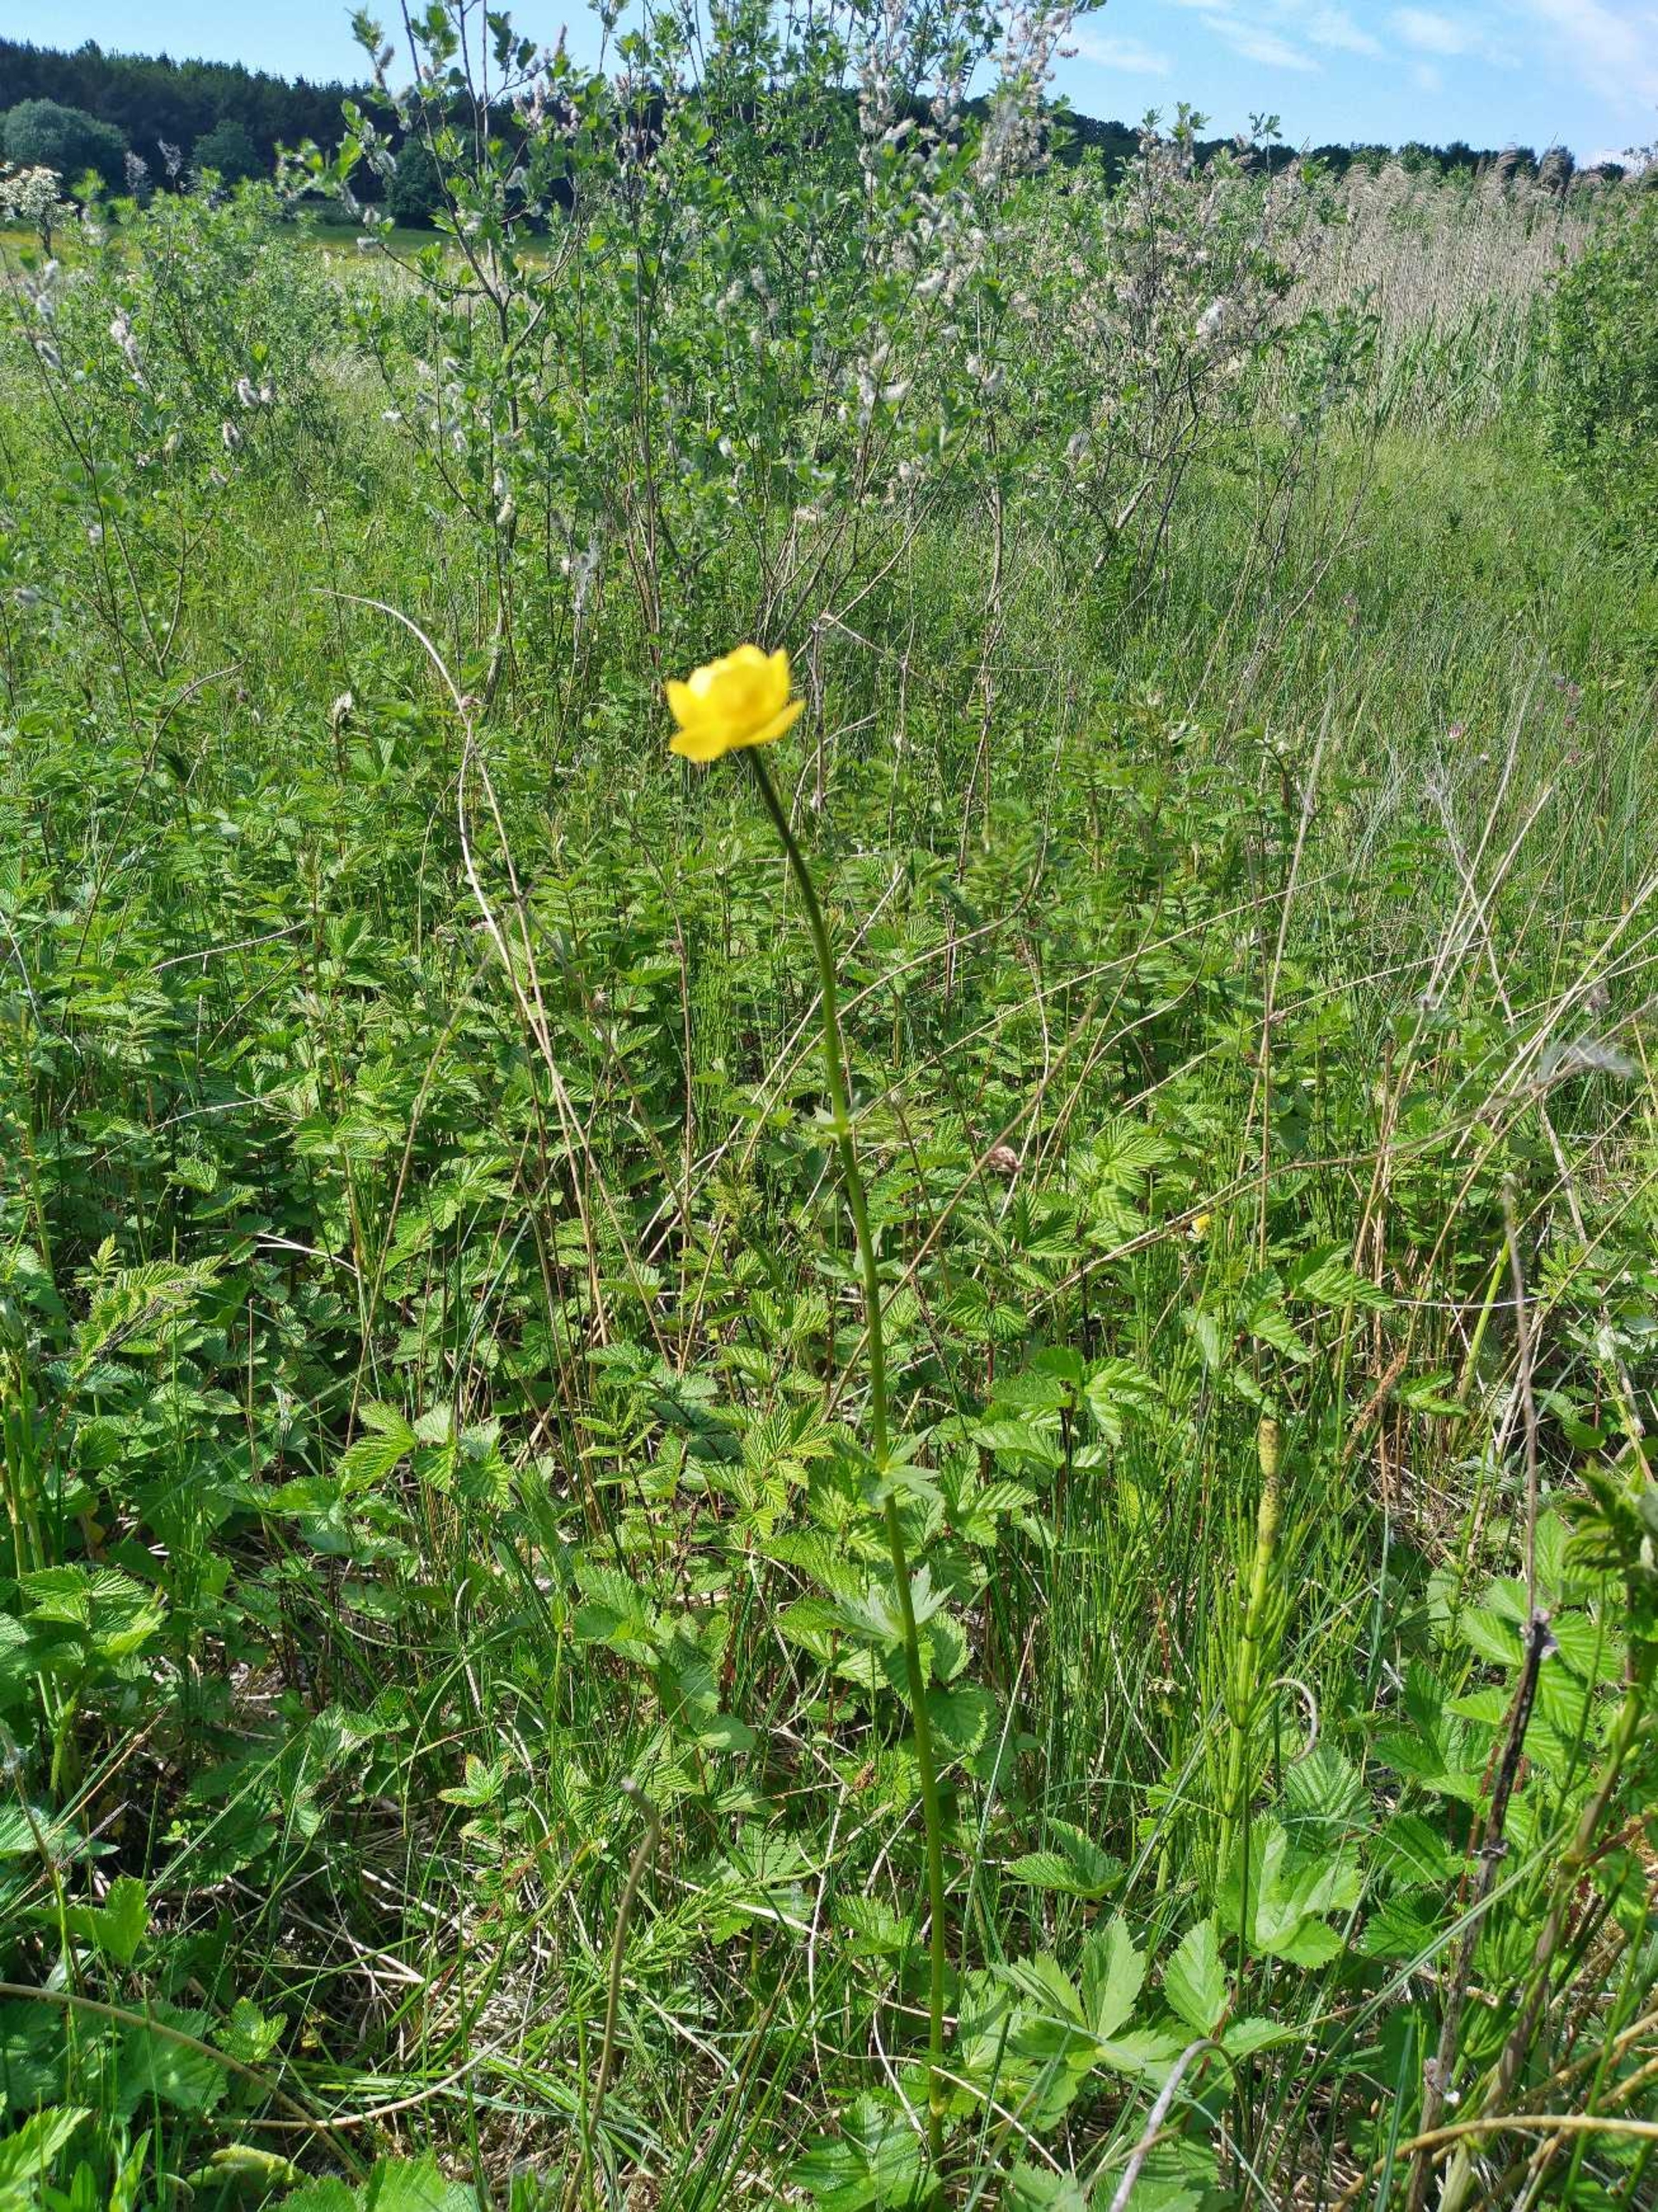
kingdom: Plantae
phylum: Tracheophyta
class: Magnoliopsida
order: Ranunculales
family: Ranunculaceae
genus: Trollius
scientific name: Trollius europaeus
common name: Engblomme
